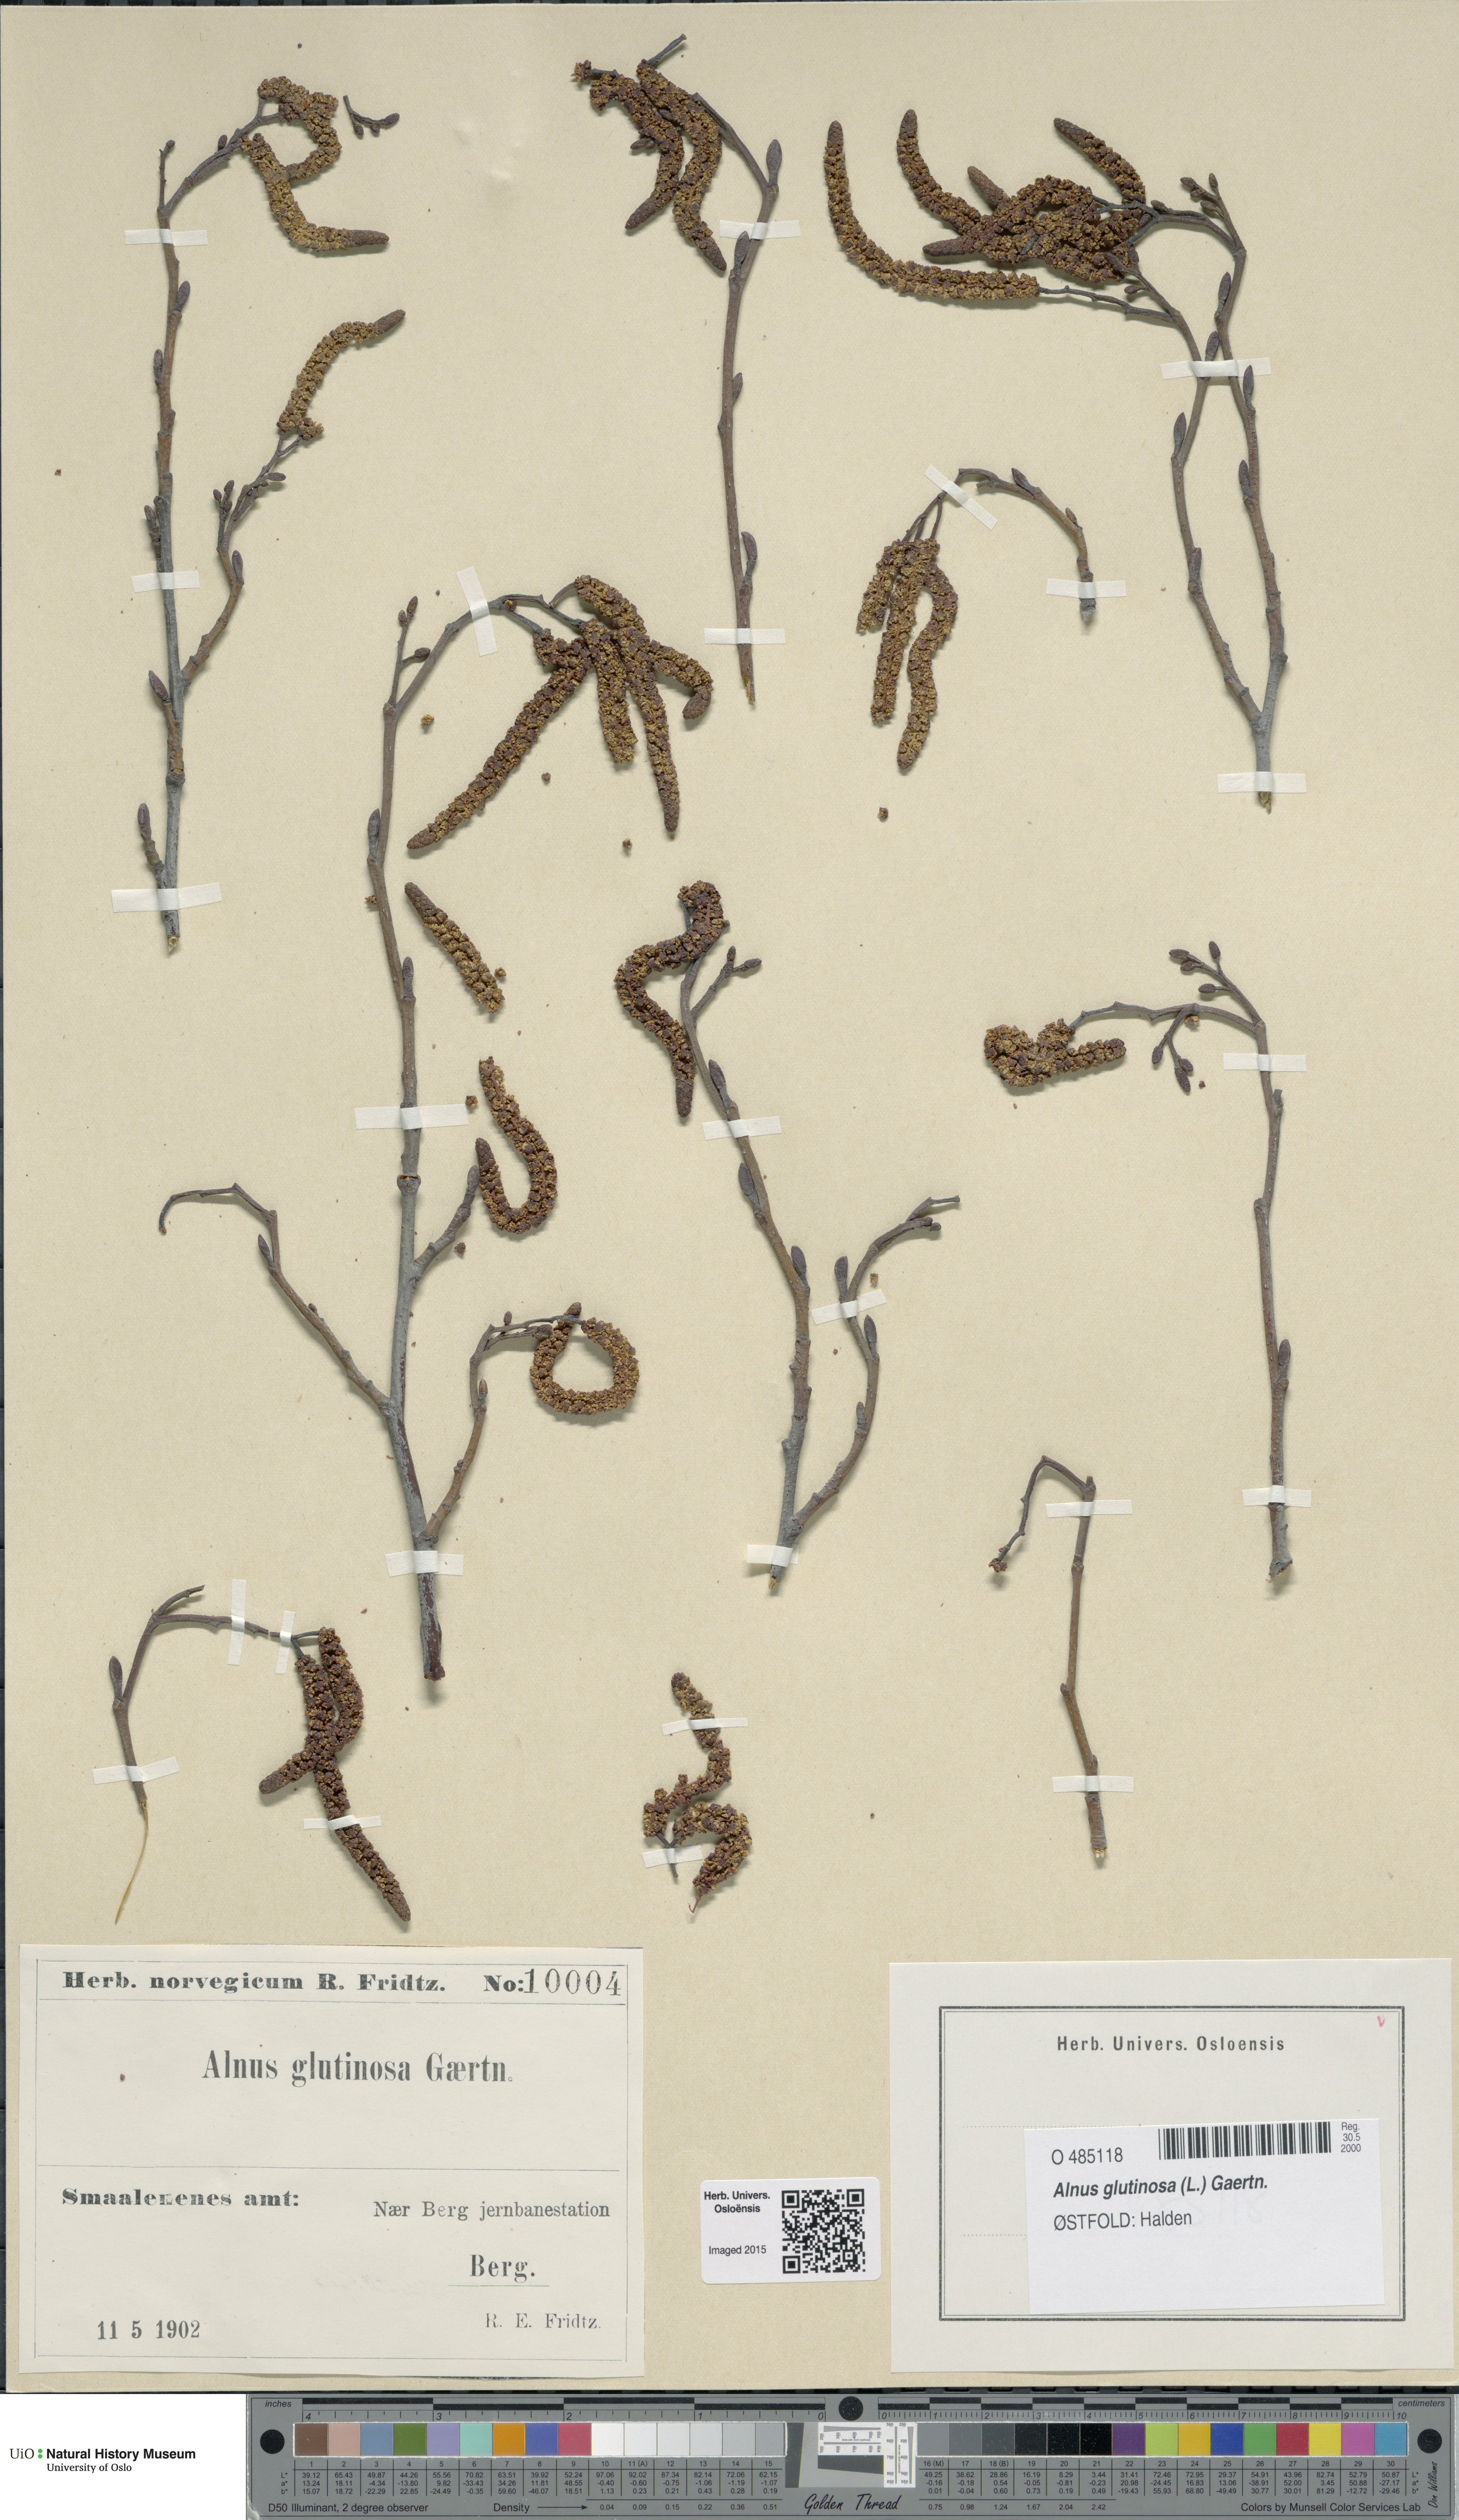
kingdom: Plantae
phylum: Tracheophyta
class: Magnoliopsida
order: Fagales
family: Betulaceae
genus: Alnus
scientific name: Alnus glutinosa
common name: Black alder
